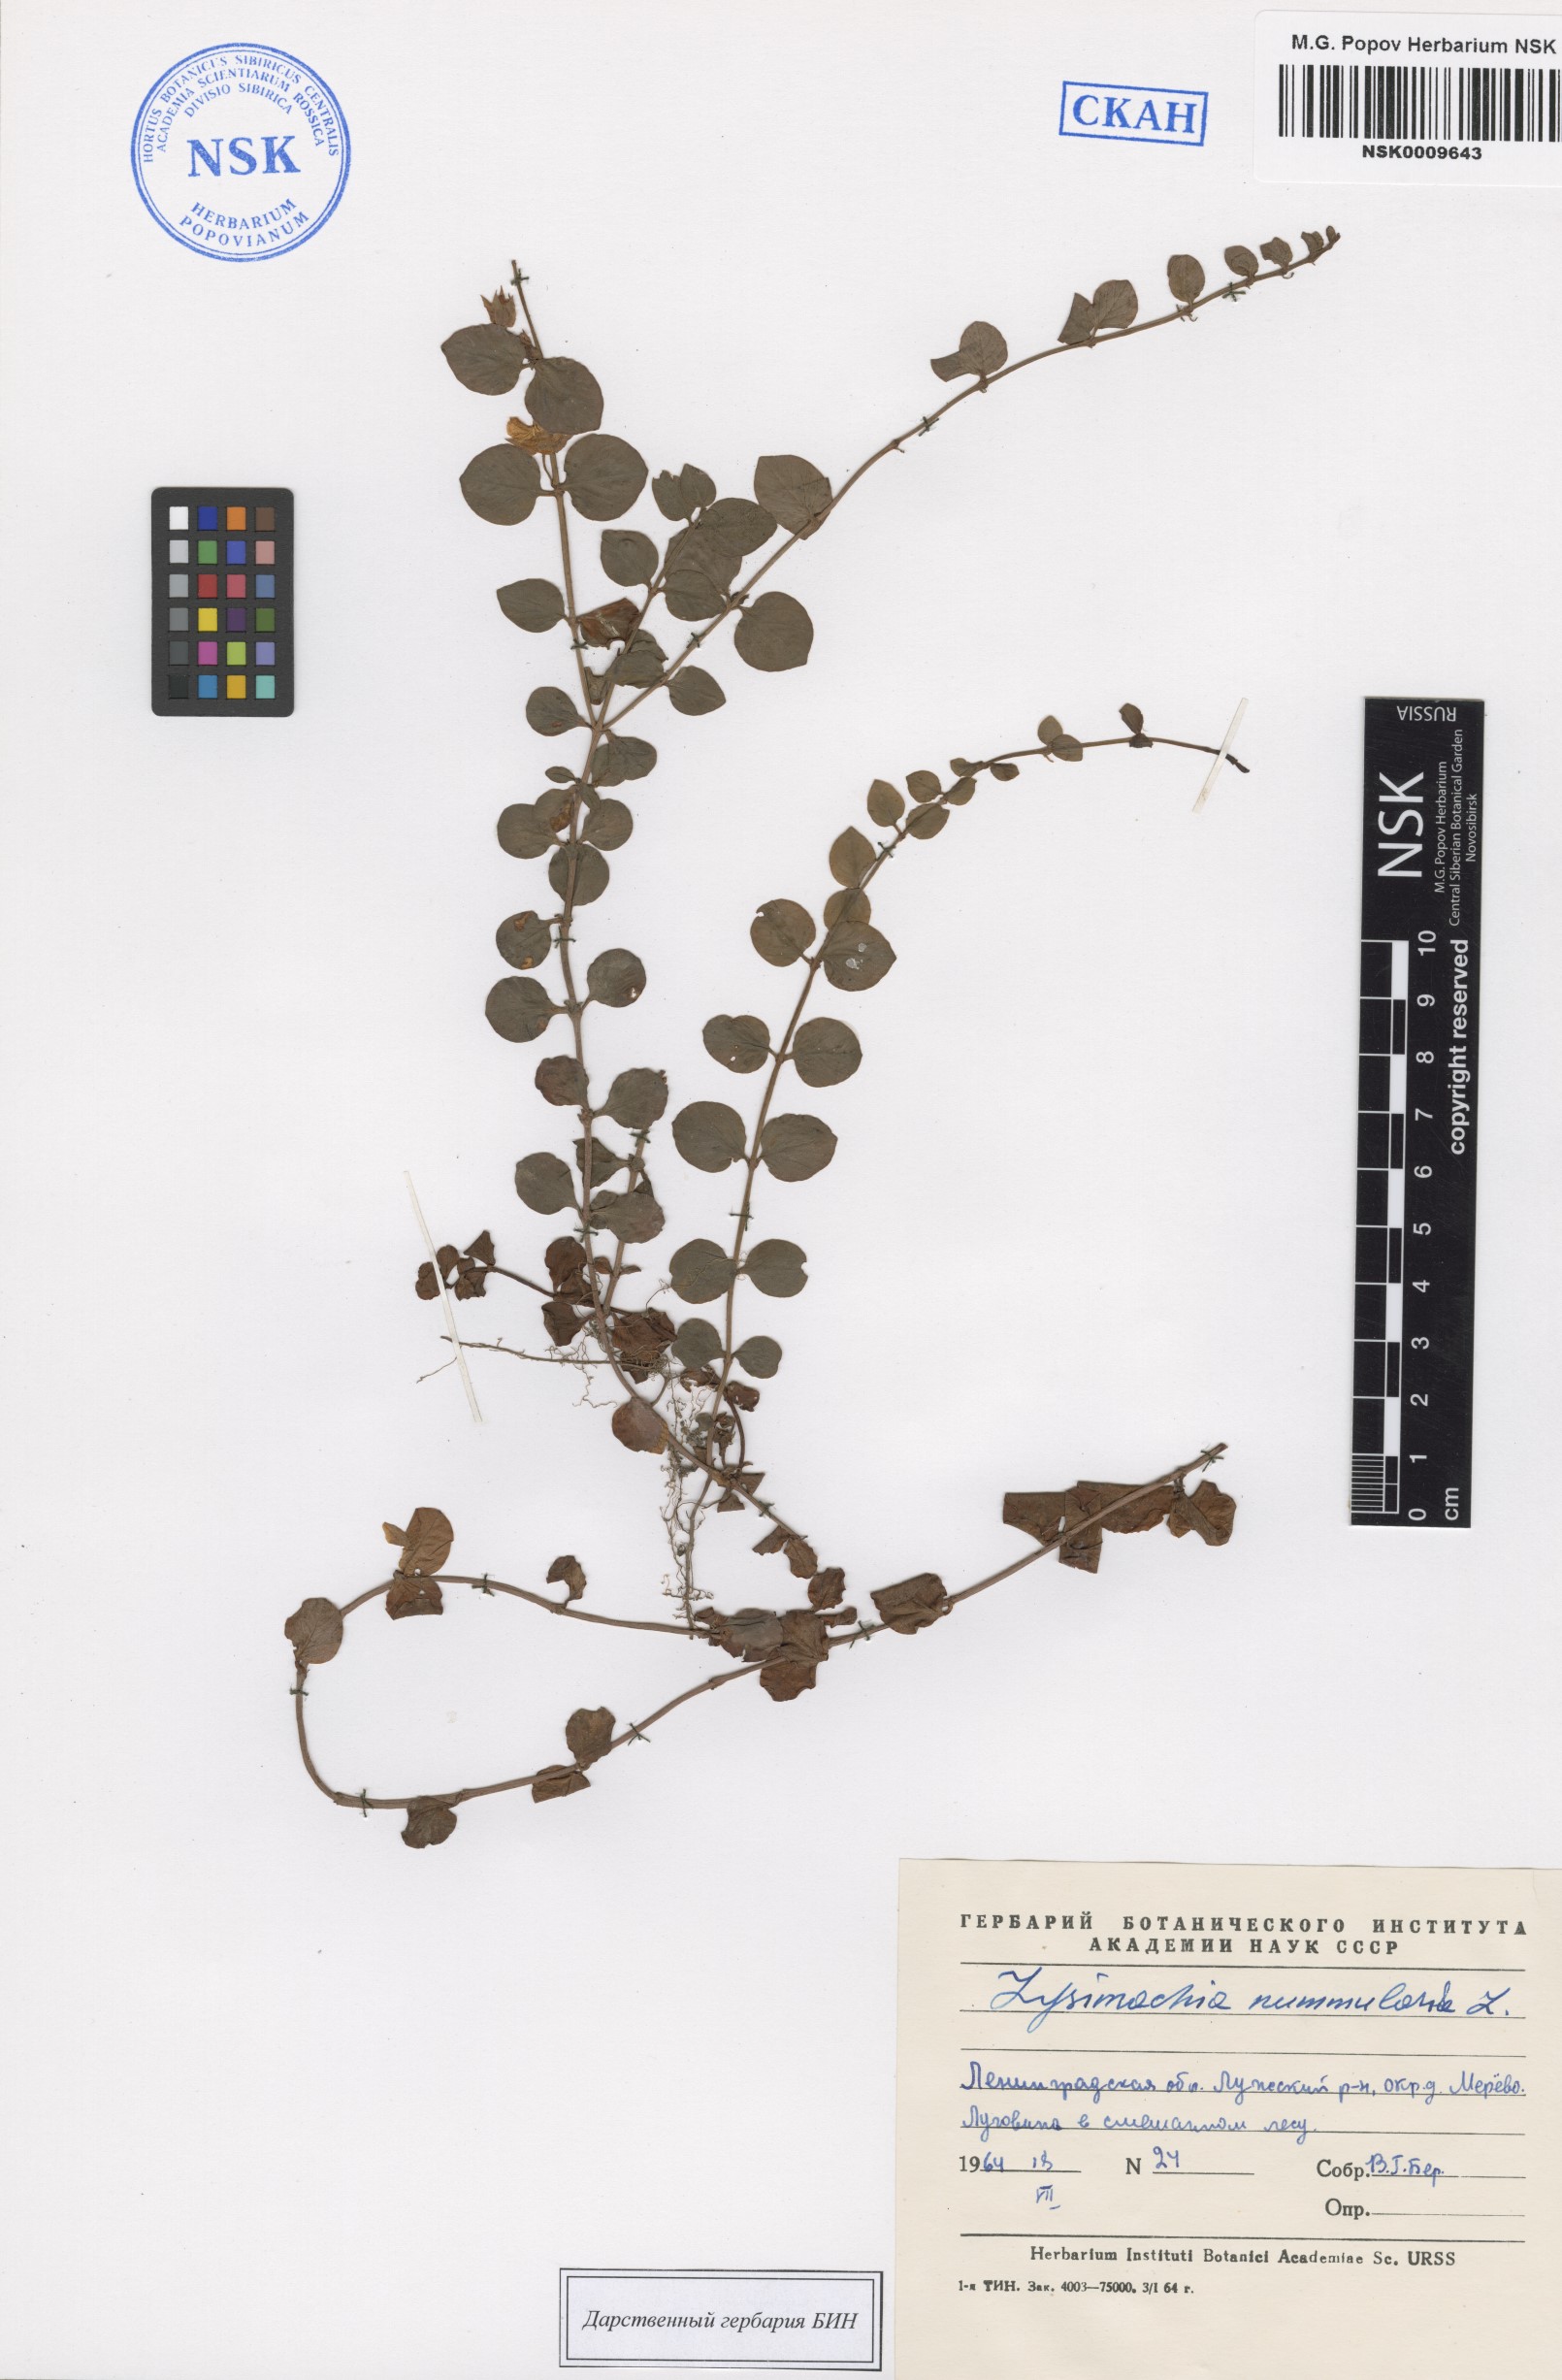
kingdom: Plantae
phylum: Tracheophyta
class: Magnoliopsida
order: Ericales
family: Primulaceae
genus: Lysimachia
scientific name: Lysimachia nummularia
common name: Moneywort
